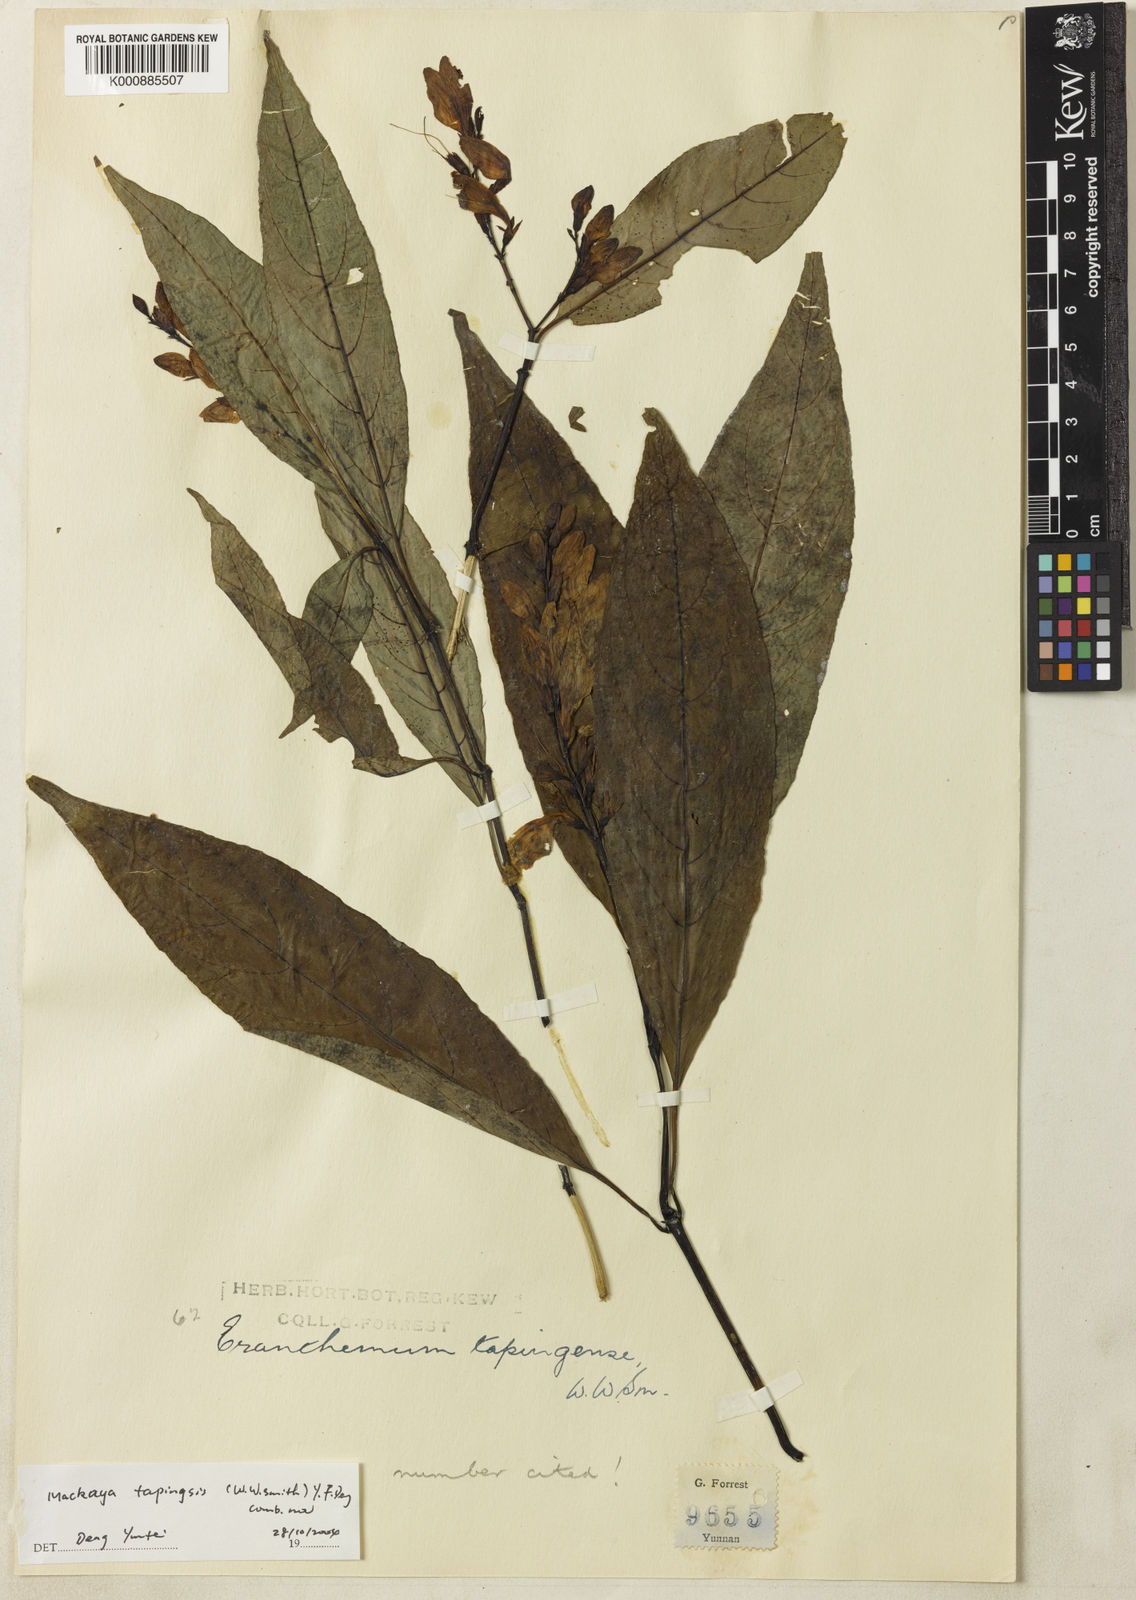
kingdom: Plantae
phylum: Tracheophyta
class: Magnoliopsida
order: Lamiales
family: Acanthaceae
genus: Mackaya
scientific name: Mackaya tapingensis
